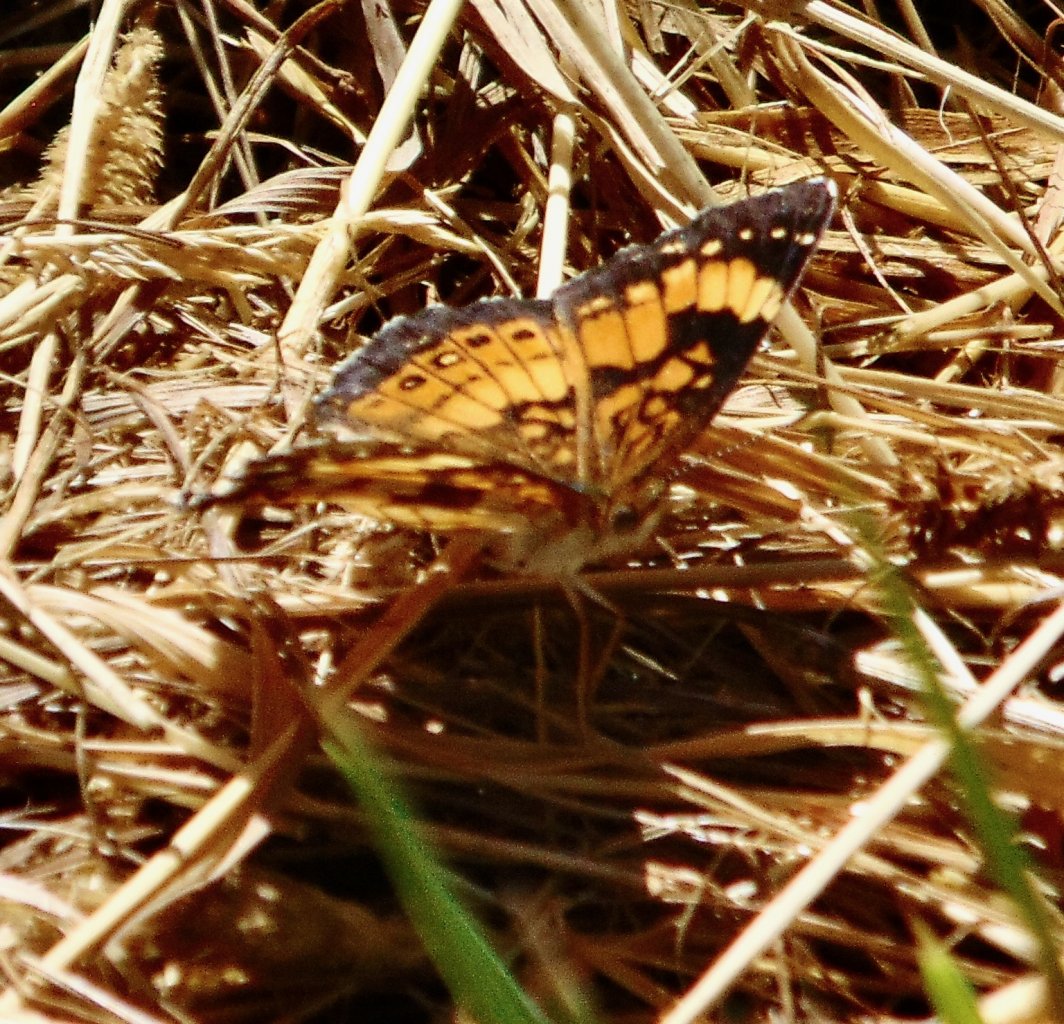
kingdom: Animalia
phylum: Arthropoda
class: Insecta
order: Lepidoptera
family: Nymphalidae
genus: Chlosyne
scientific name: Chlosyne nycteis
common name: Silvery Checkerspot
